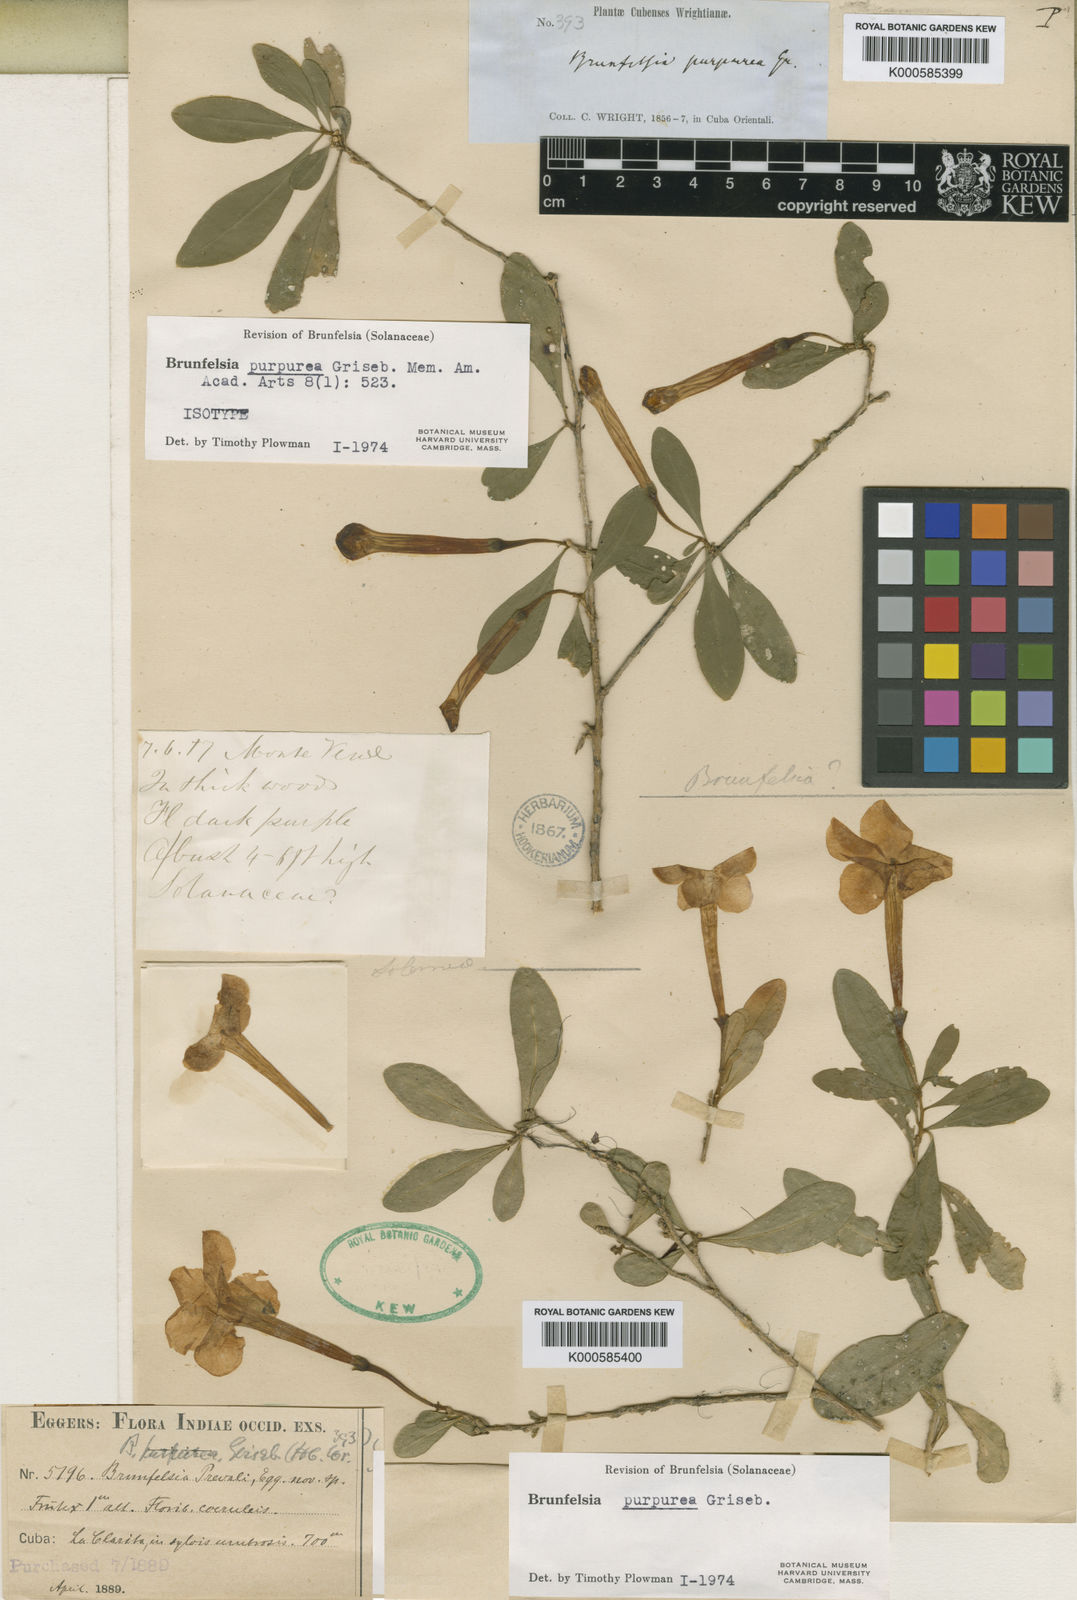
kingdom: Plantae
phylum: Tracheophyta
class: Magnoliopsida
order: Solanales
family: Solanaceae
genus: Brunfelsia
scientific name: Brunfelsia purpurea
